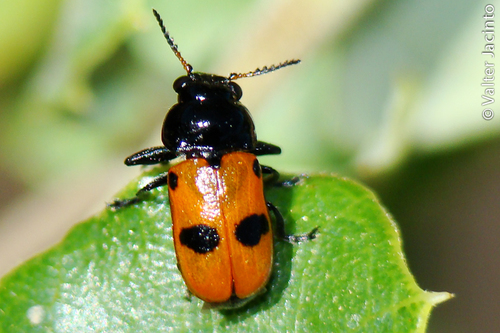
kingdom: Animalia
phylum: Arthropoda
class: Insecta
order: Coleoptera
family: Chrysomelidae
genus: Labidostomis
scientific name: Labidostomis ghilianii
